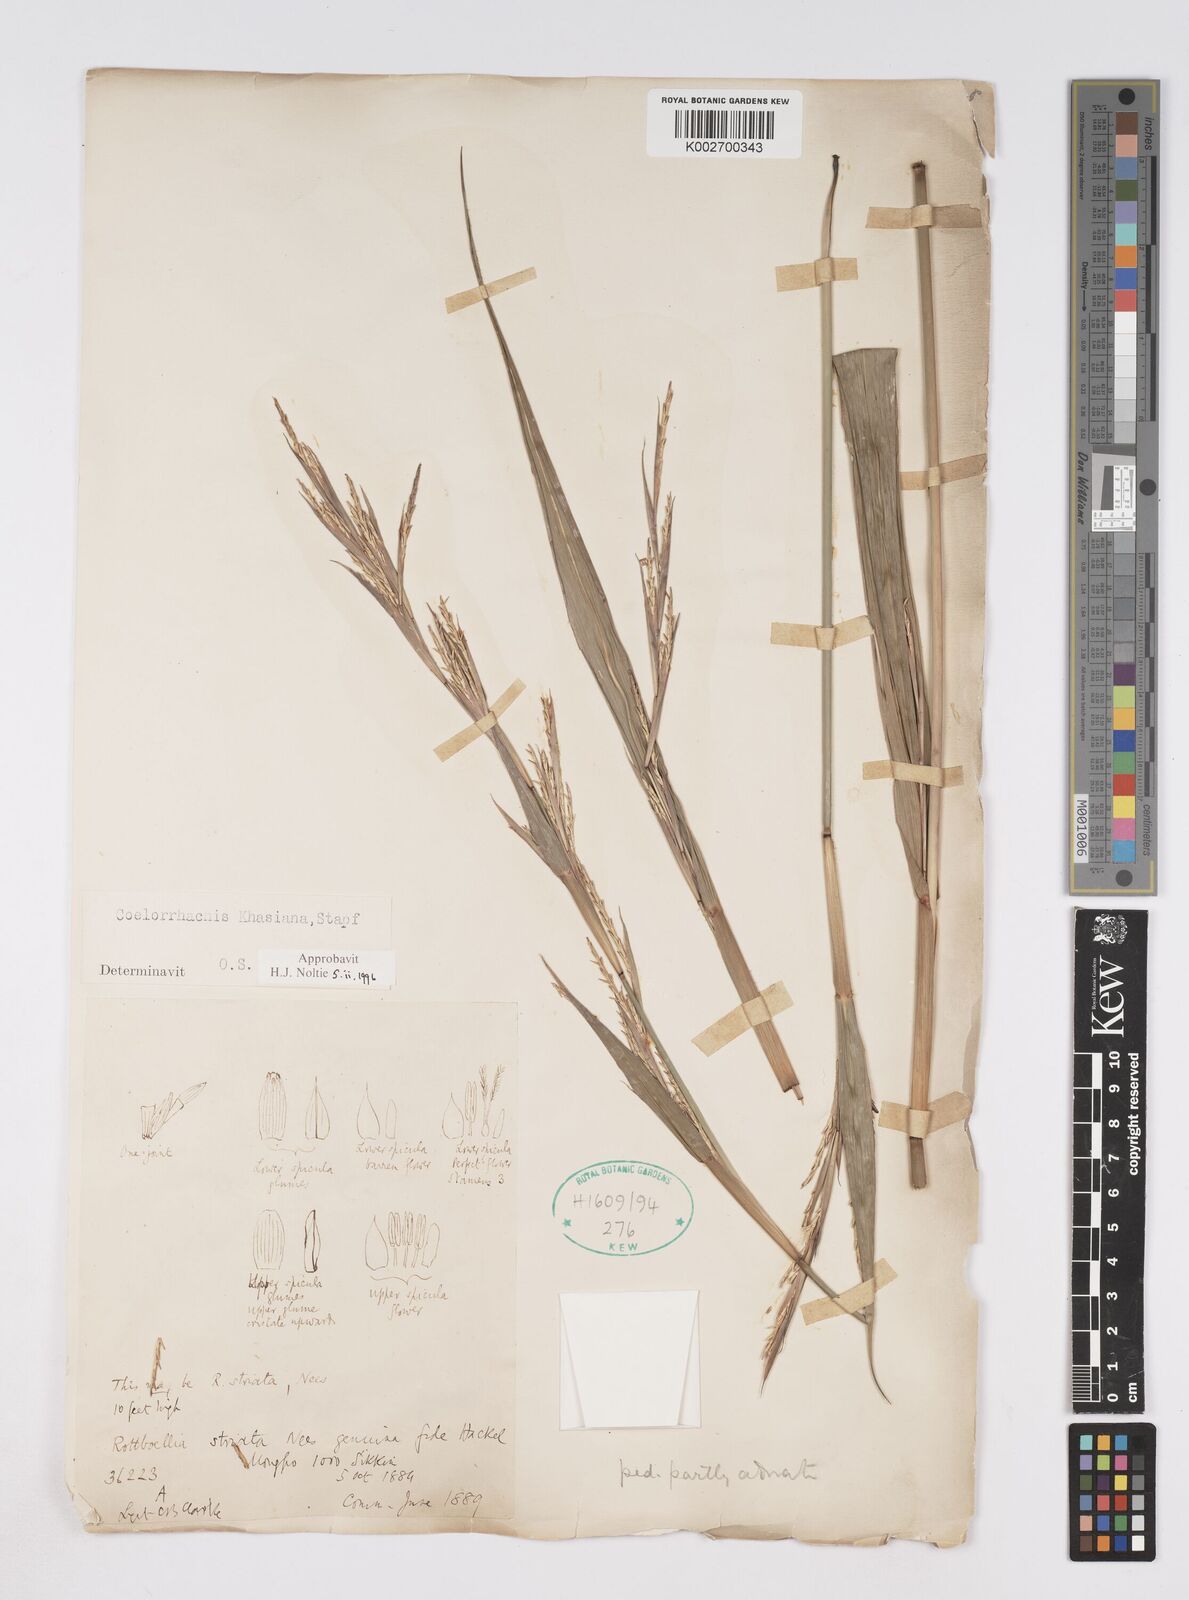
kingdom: Plantae
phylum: Tracheophyta
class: Liliopsida
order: Poales
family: Poaceae
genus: Rottboellia
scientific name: Rottboellia striata
